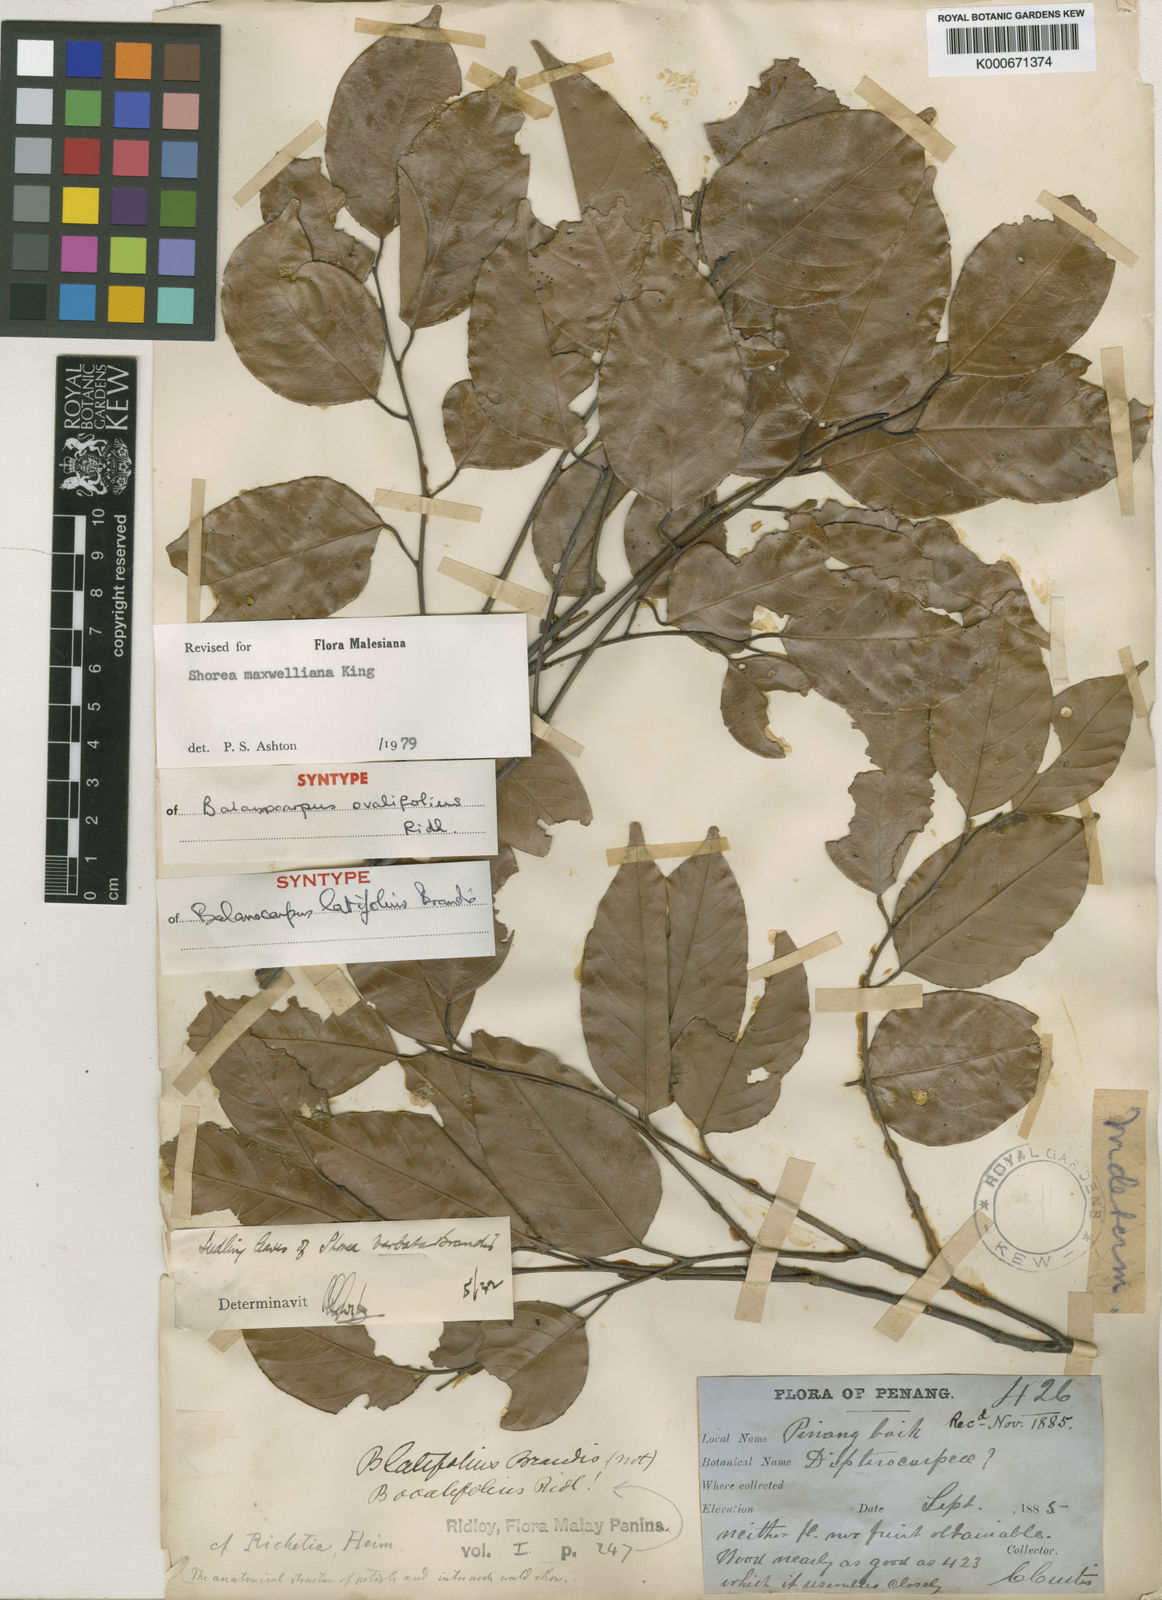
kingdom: Plantae
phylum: Tracheophyta
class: Magnoliopsida
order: Malvales
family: Dipterocarpaceae
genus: Shorea
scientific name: Shorea maxwelliana
